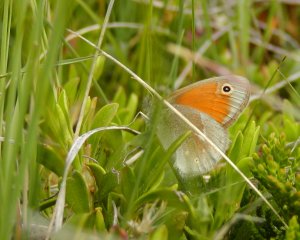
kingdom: Animalia
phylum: Arthropoda
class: Insecta
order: Lepidoptera
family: Nymphalidae
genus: Coenonympha
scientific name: Coenonympha tullia
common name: Large Heath
